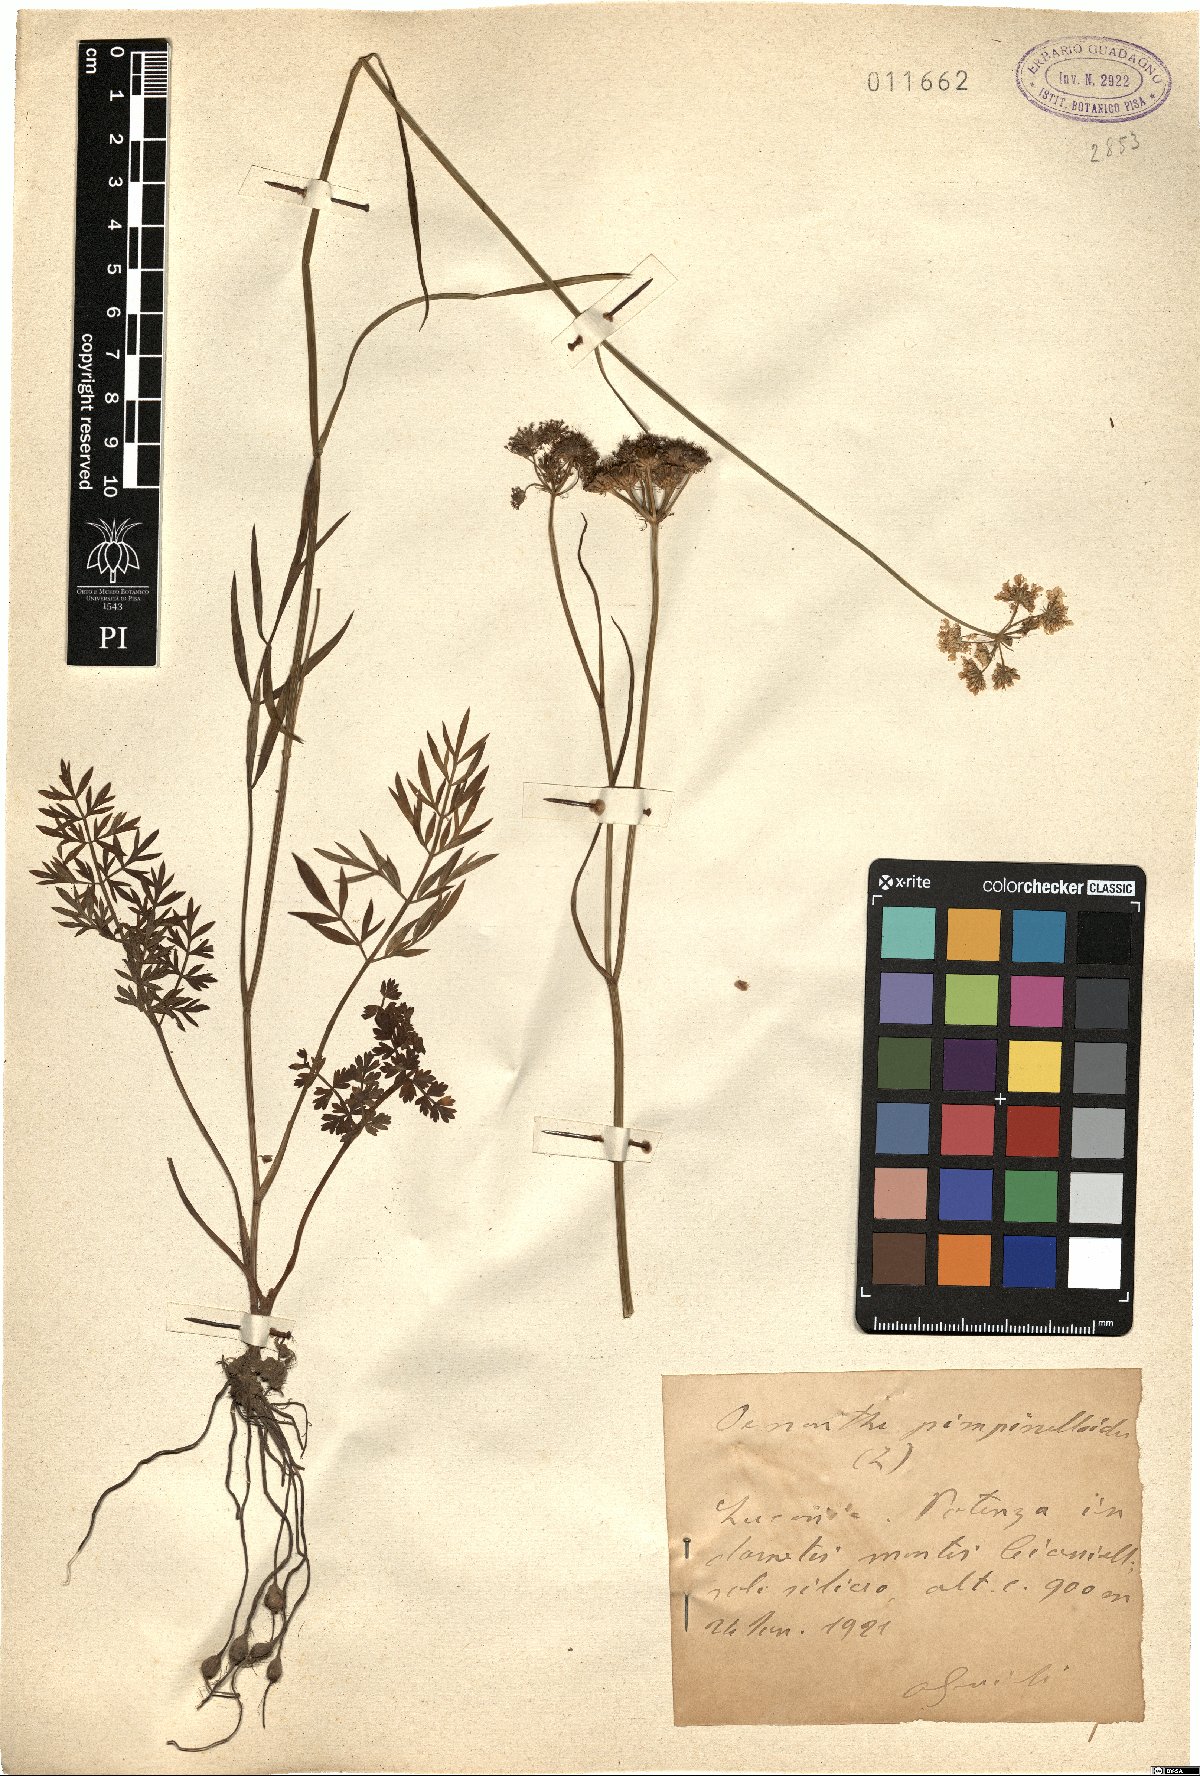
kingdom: Plantae
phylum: Tracheophyta
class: Magnoliopsida
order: Apiales
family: Apiaceae
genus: Oenanthe
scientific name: Oenanthe pimpinelloides
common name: Corky-fruited water-dropwort
